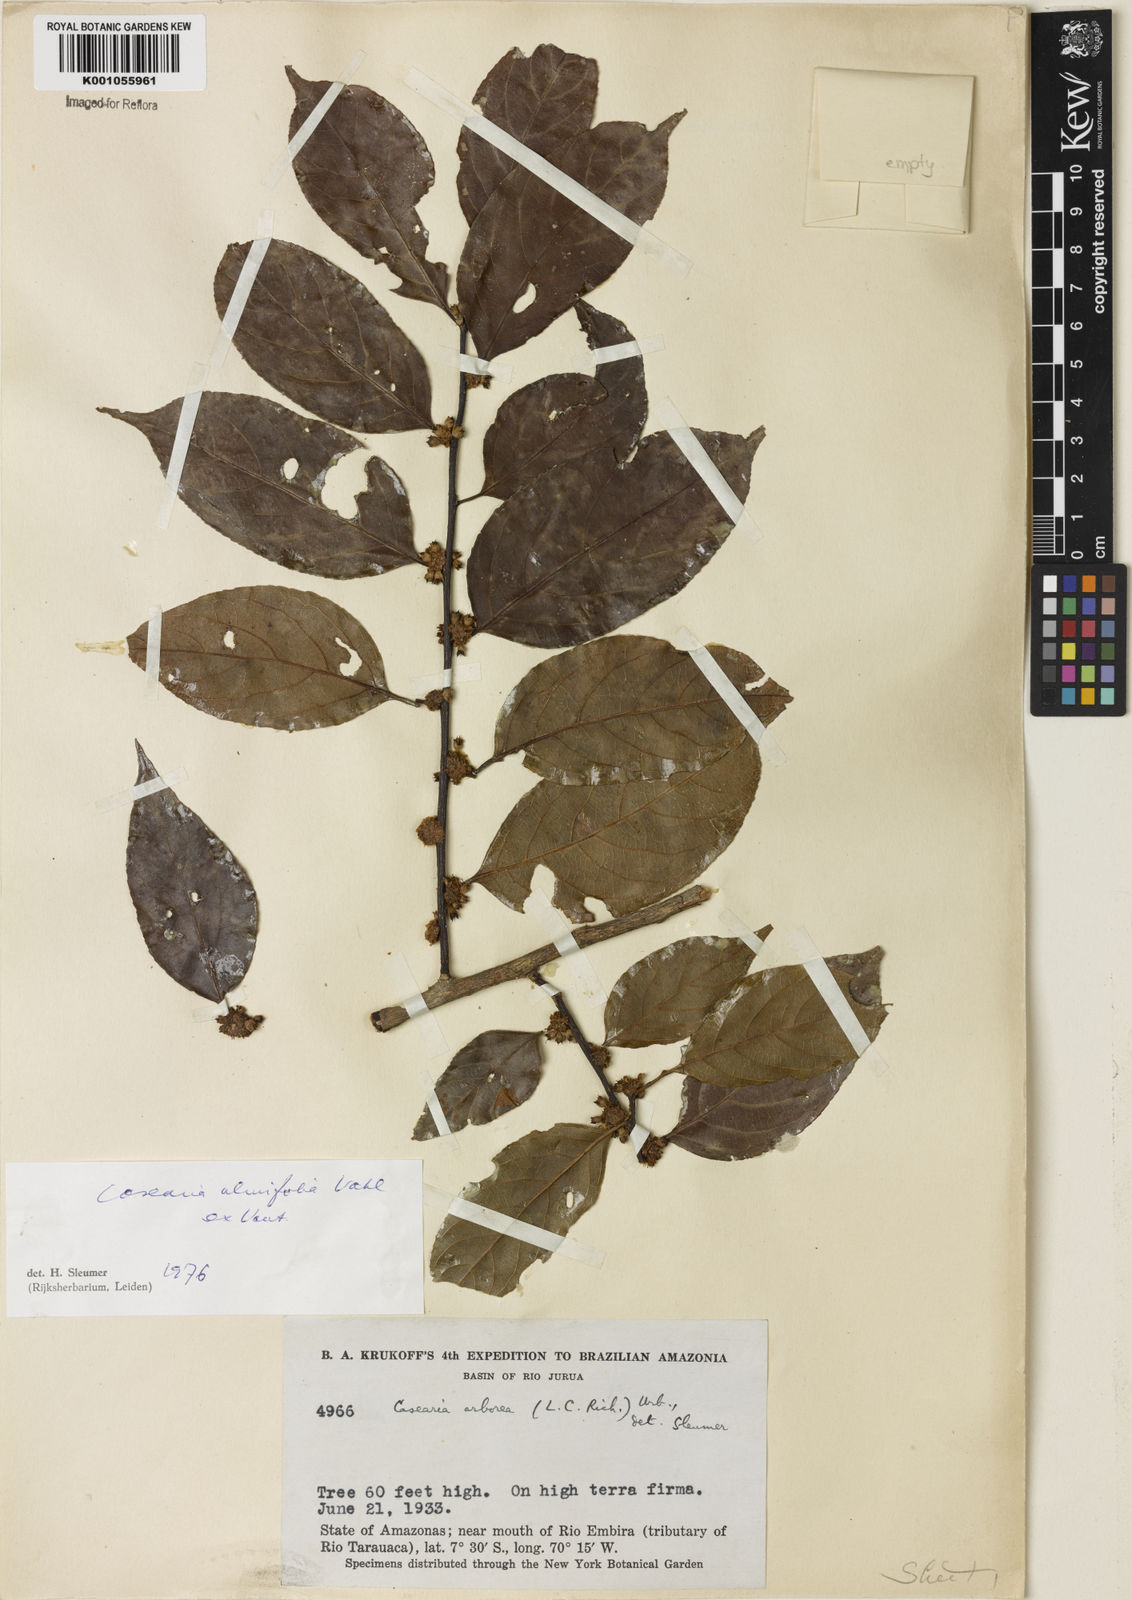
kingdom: Plantae
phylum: Tracheophyta
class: Magnoliopsida
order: Malpighiales
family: Salicaceae
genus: Casearia
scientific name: Casearia ulmifolia
